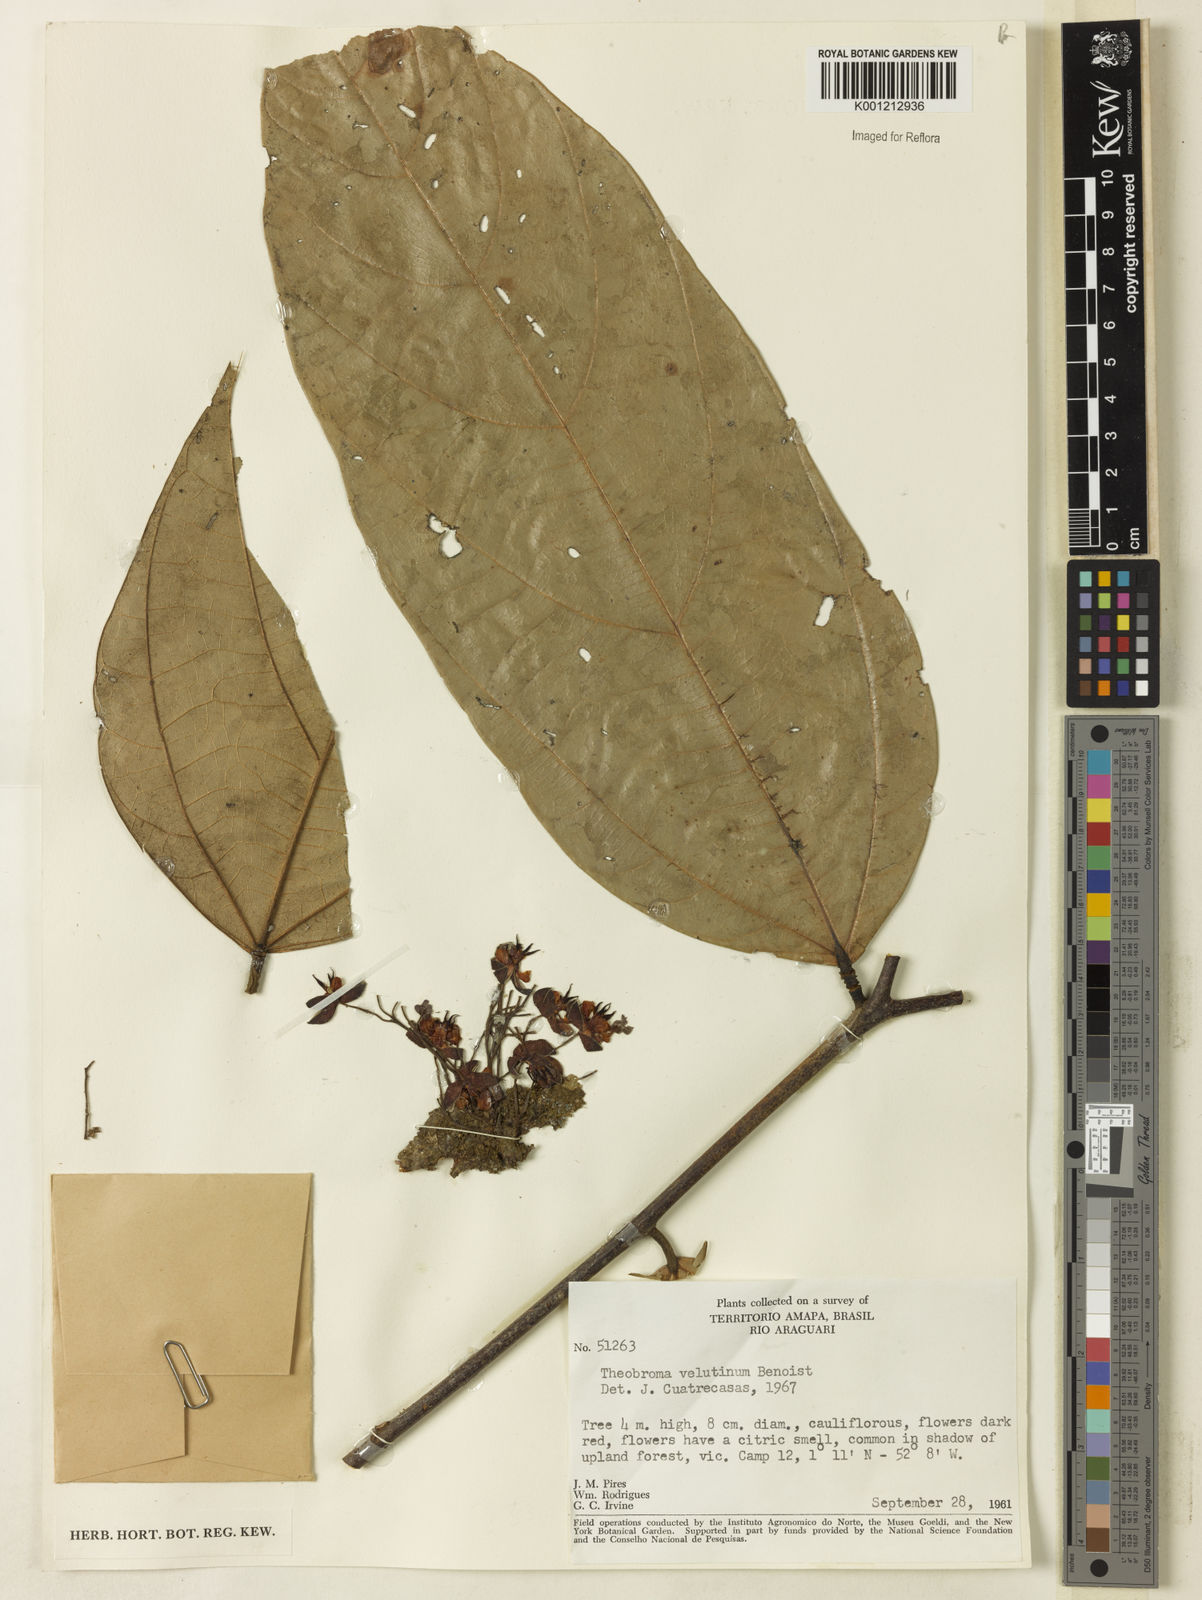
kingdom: Plantae
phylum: Tracheophyta
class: Magnoliopsida
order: Malvales
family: Malvaceae
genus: Theobroma
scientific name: Theobroma velutinum
